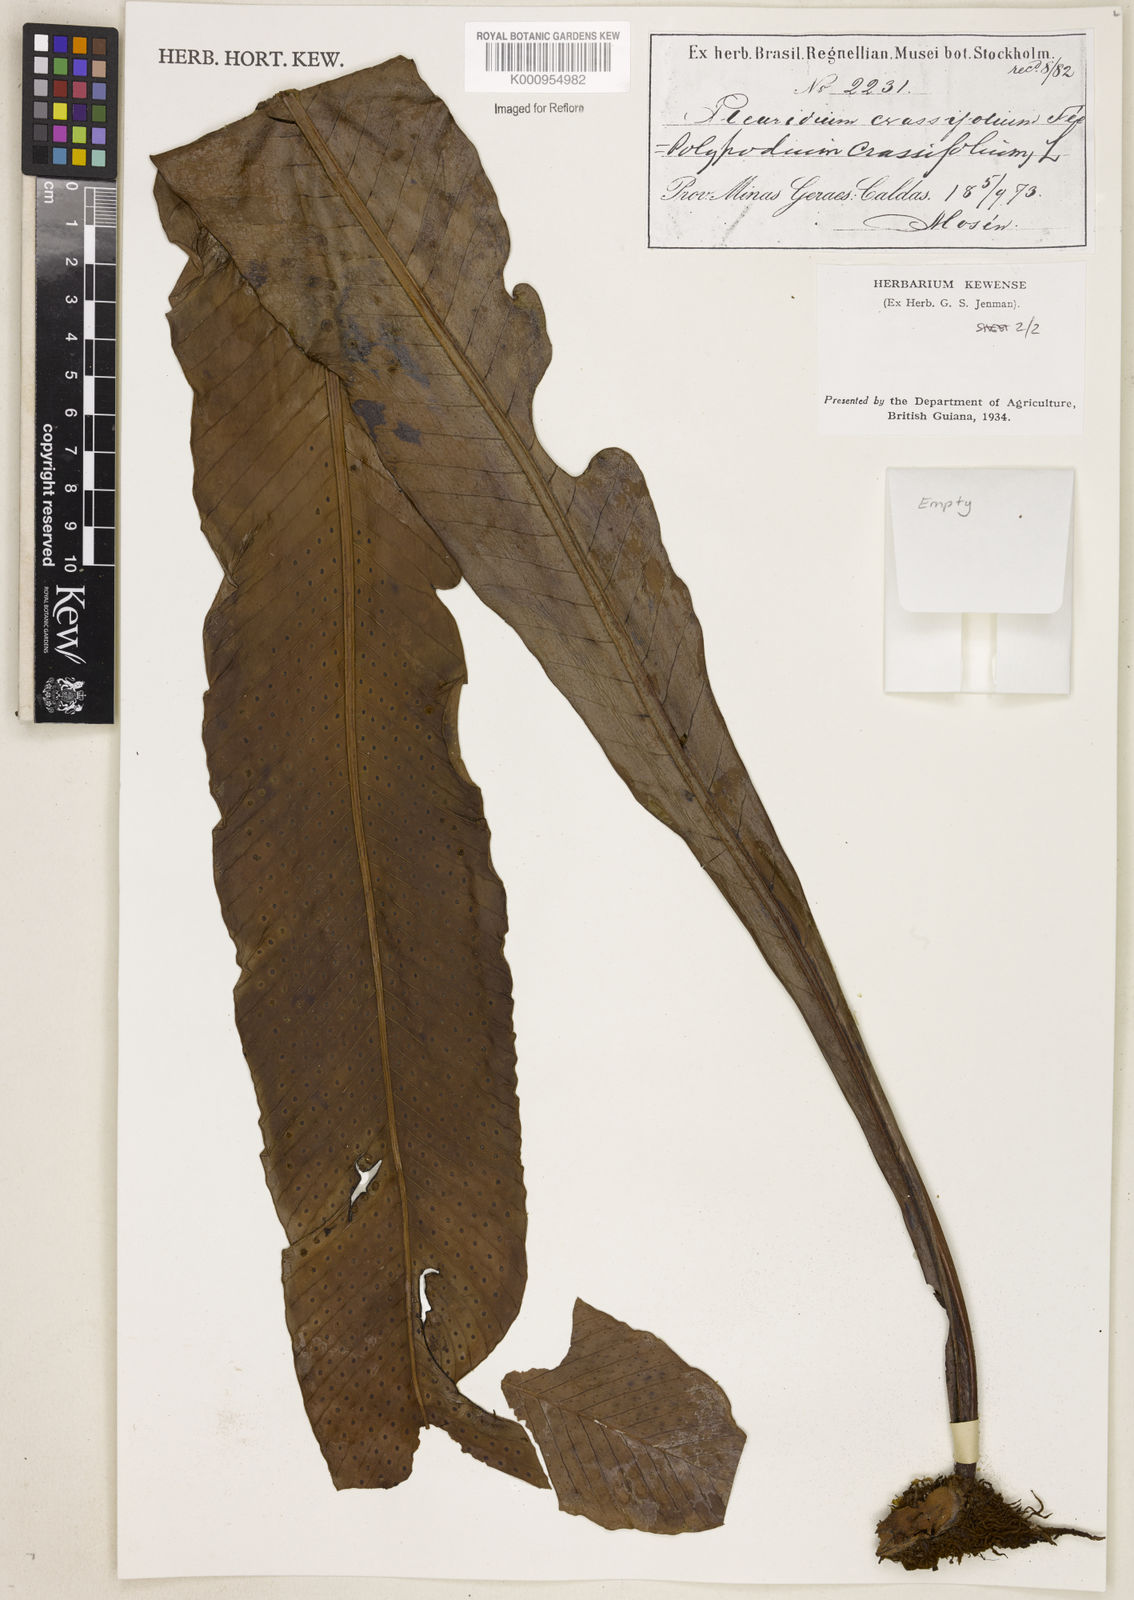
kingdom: Plantae
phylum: Tracheophyta
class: Polypodiopsida
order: Polypodiales
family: Polypodiaceae
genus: Niphidium
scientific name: Niphidium crassifolium
